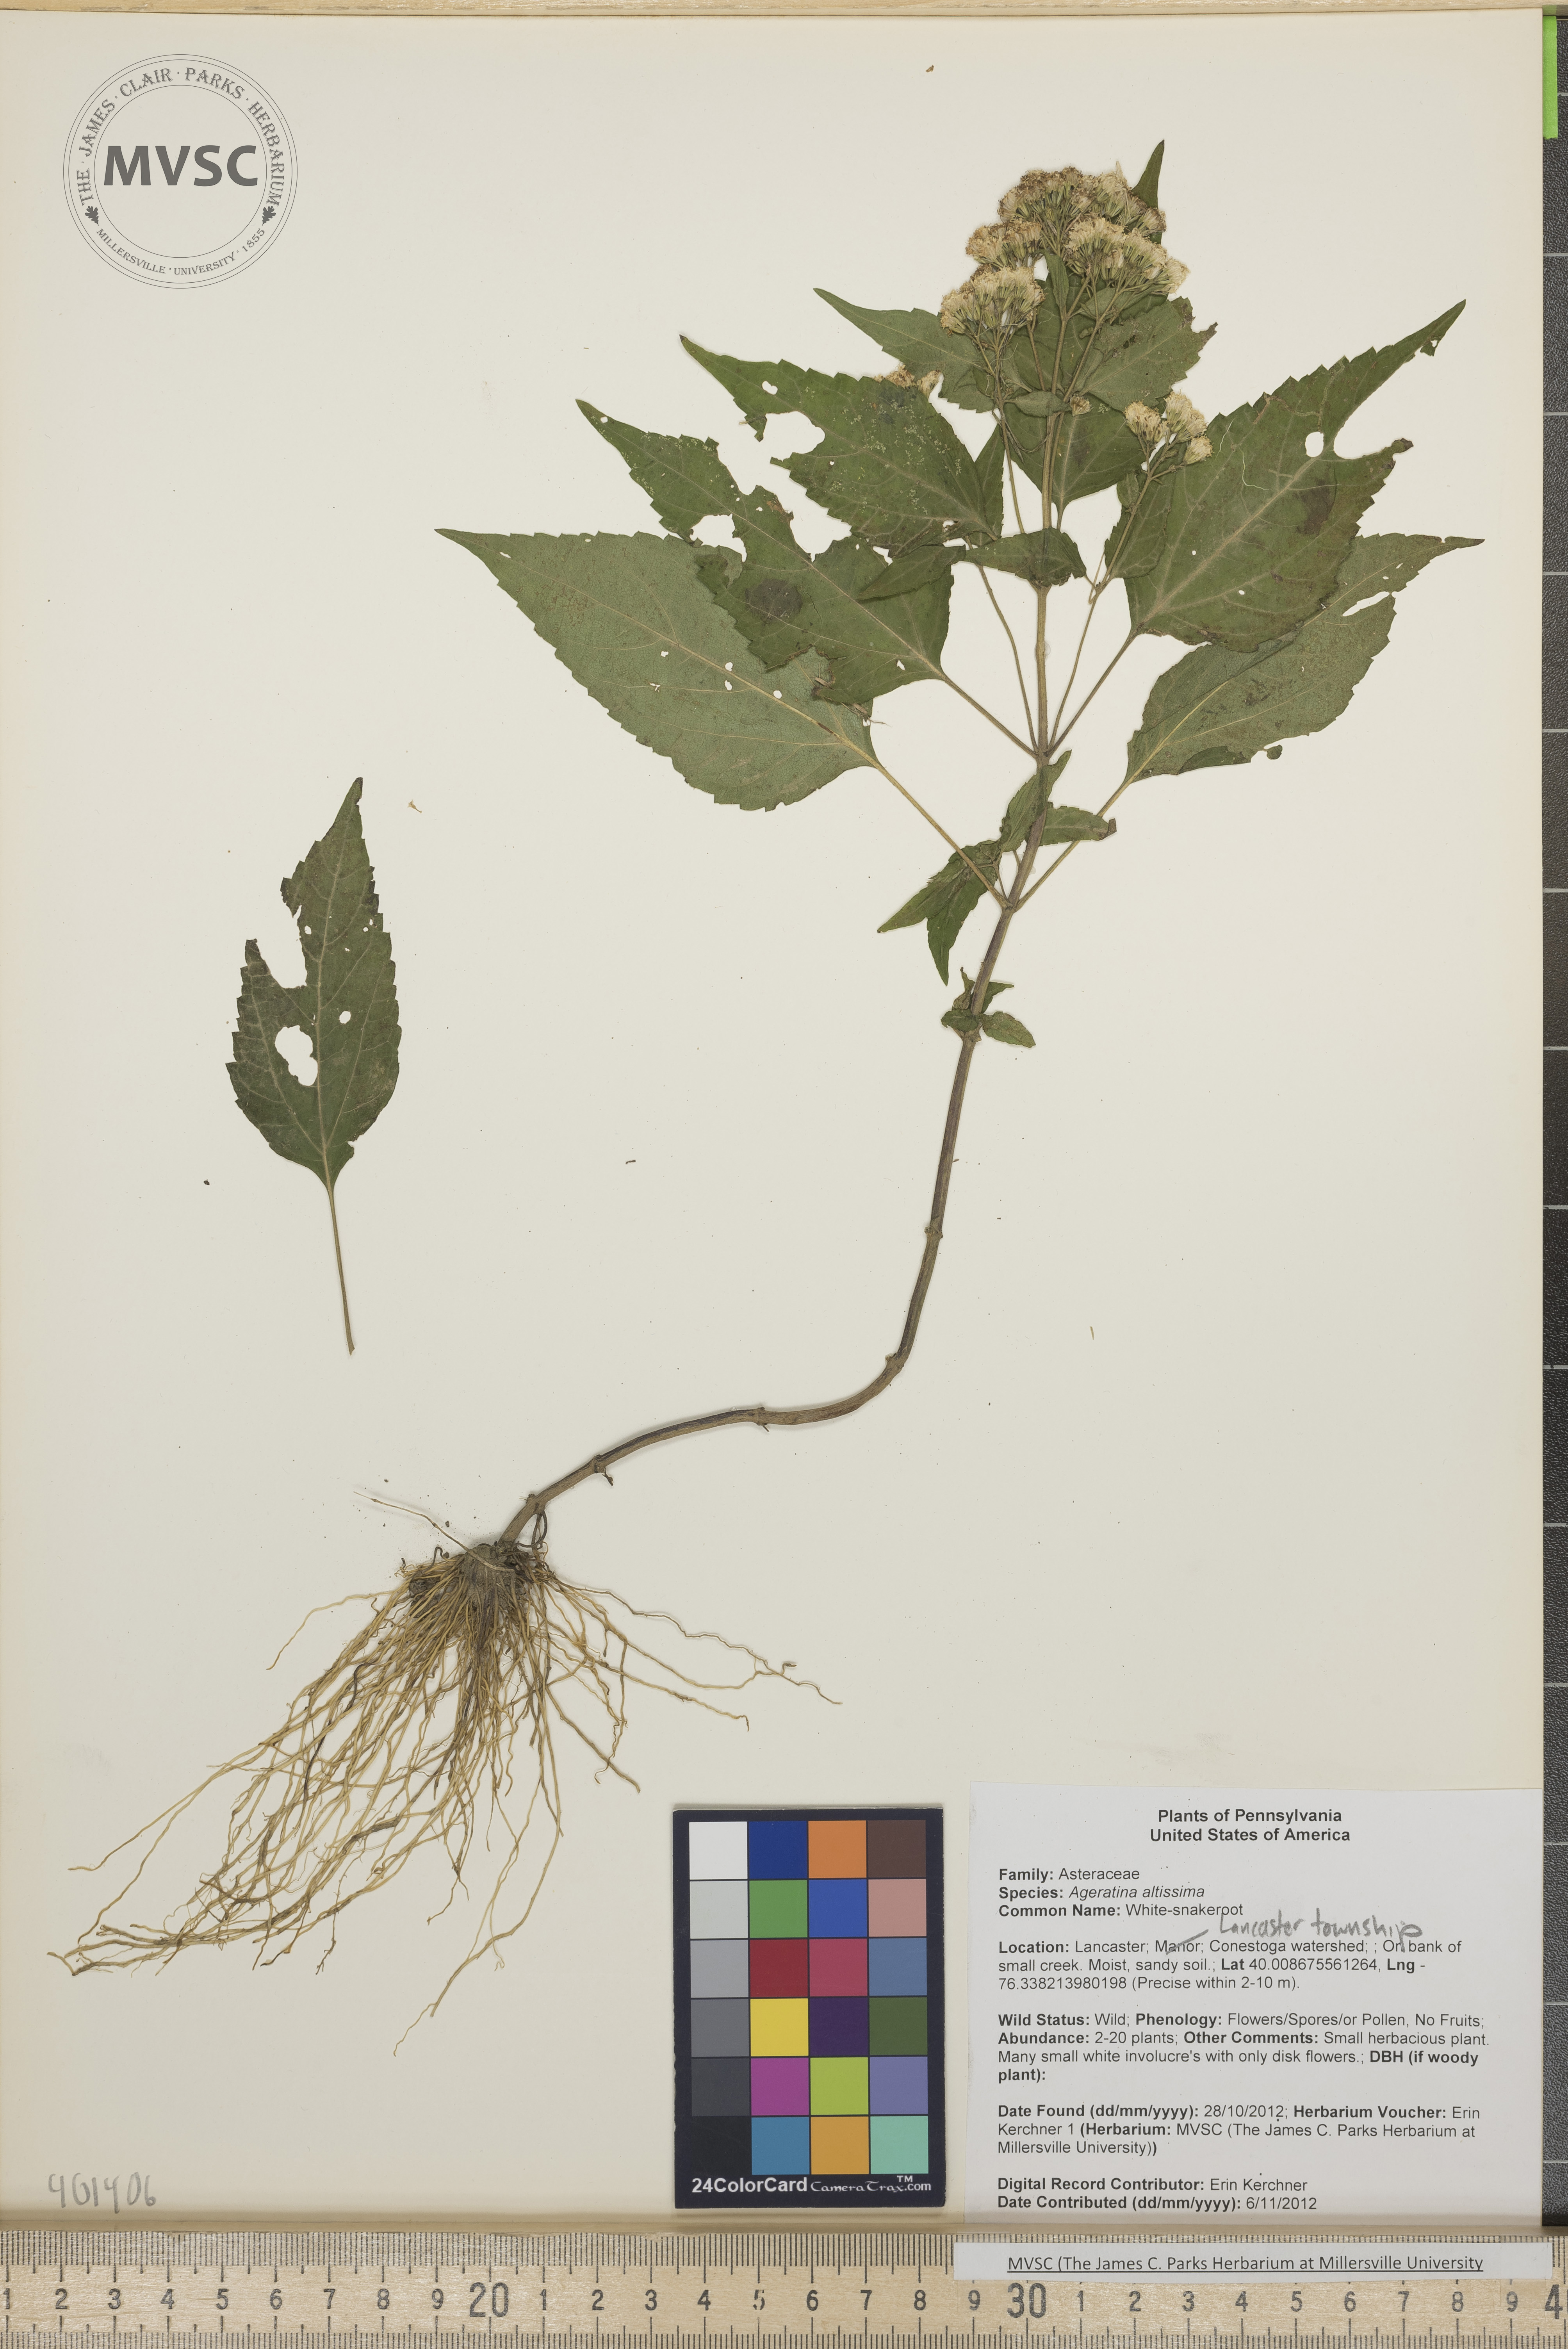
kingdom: Plantae
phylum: Tracheophyta
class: Magnoliopsida
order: Asterales
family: Asteraceae
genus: Ageratina
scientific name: Ageratina altissima
